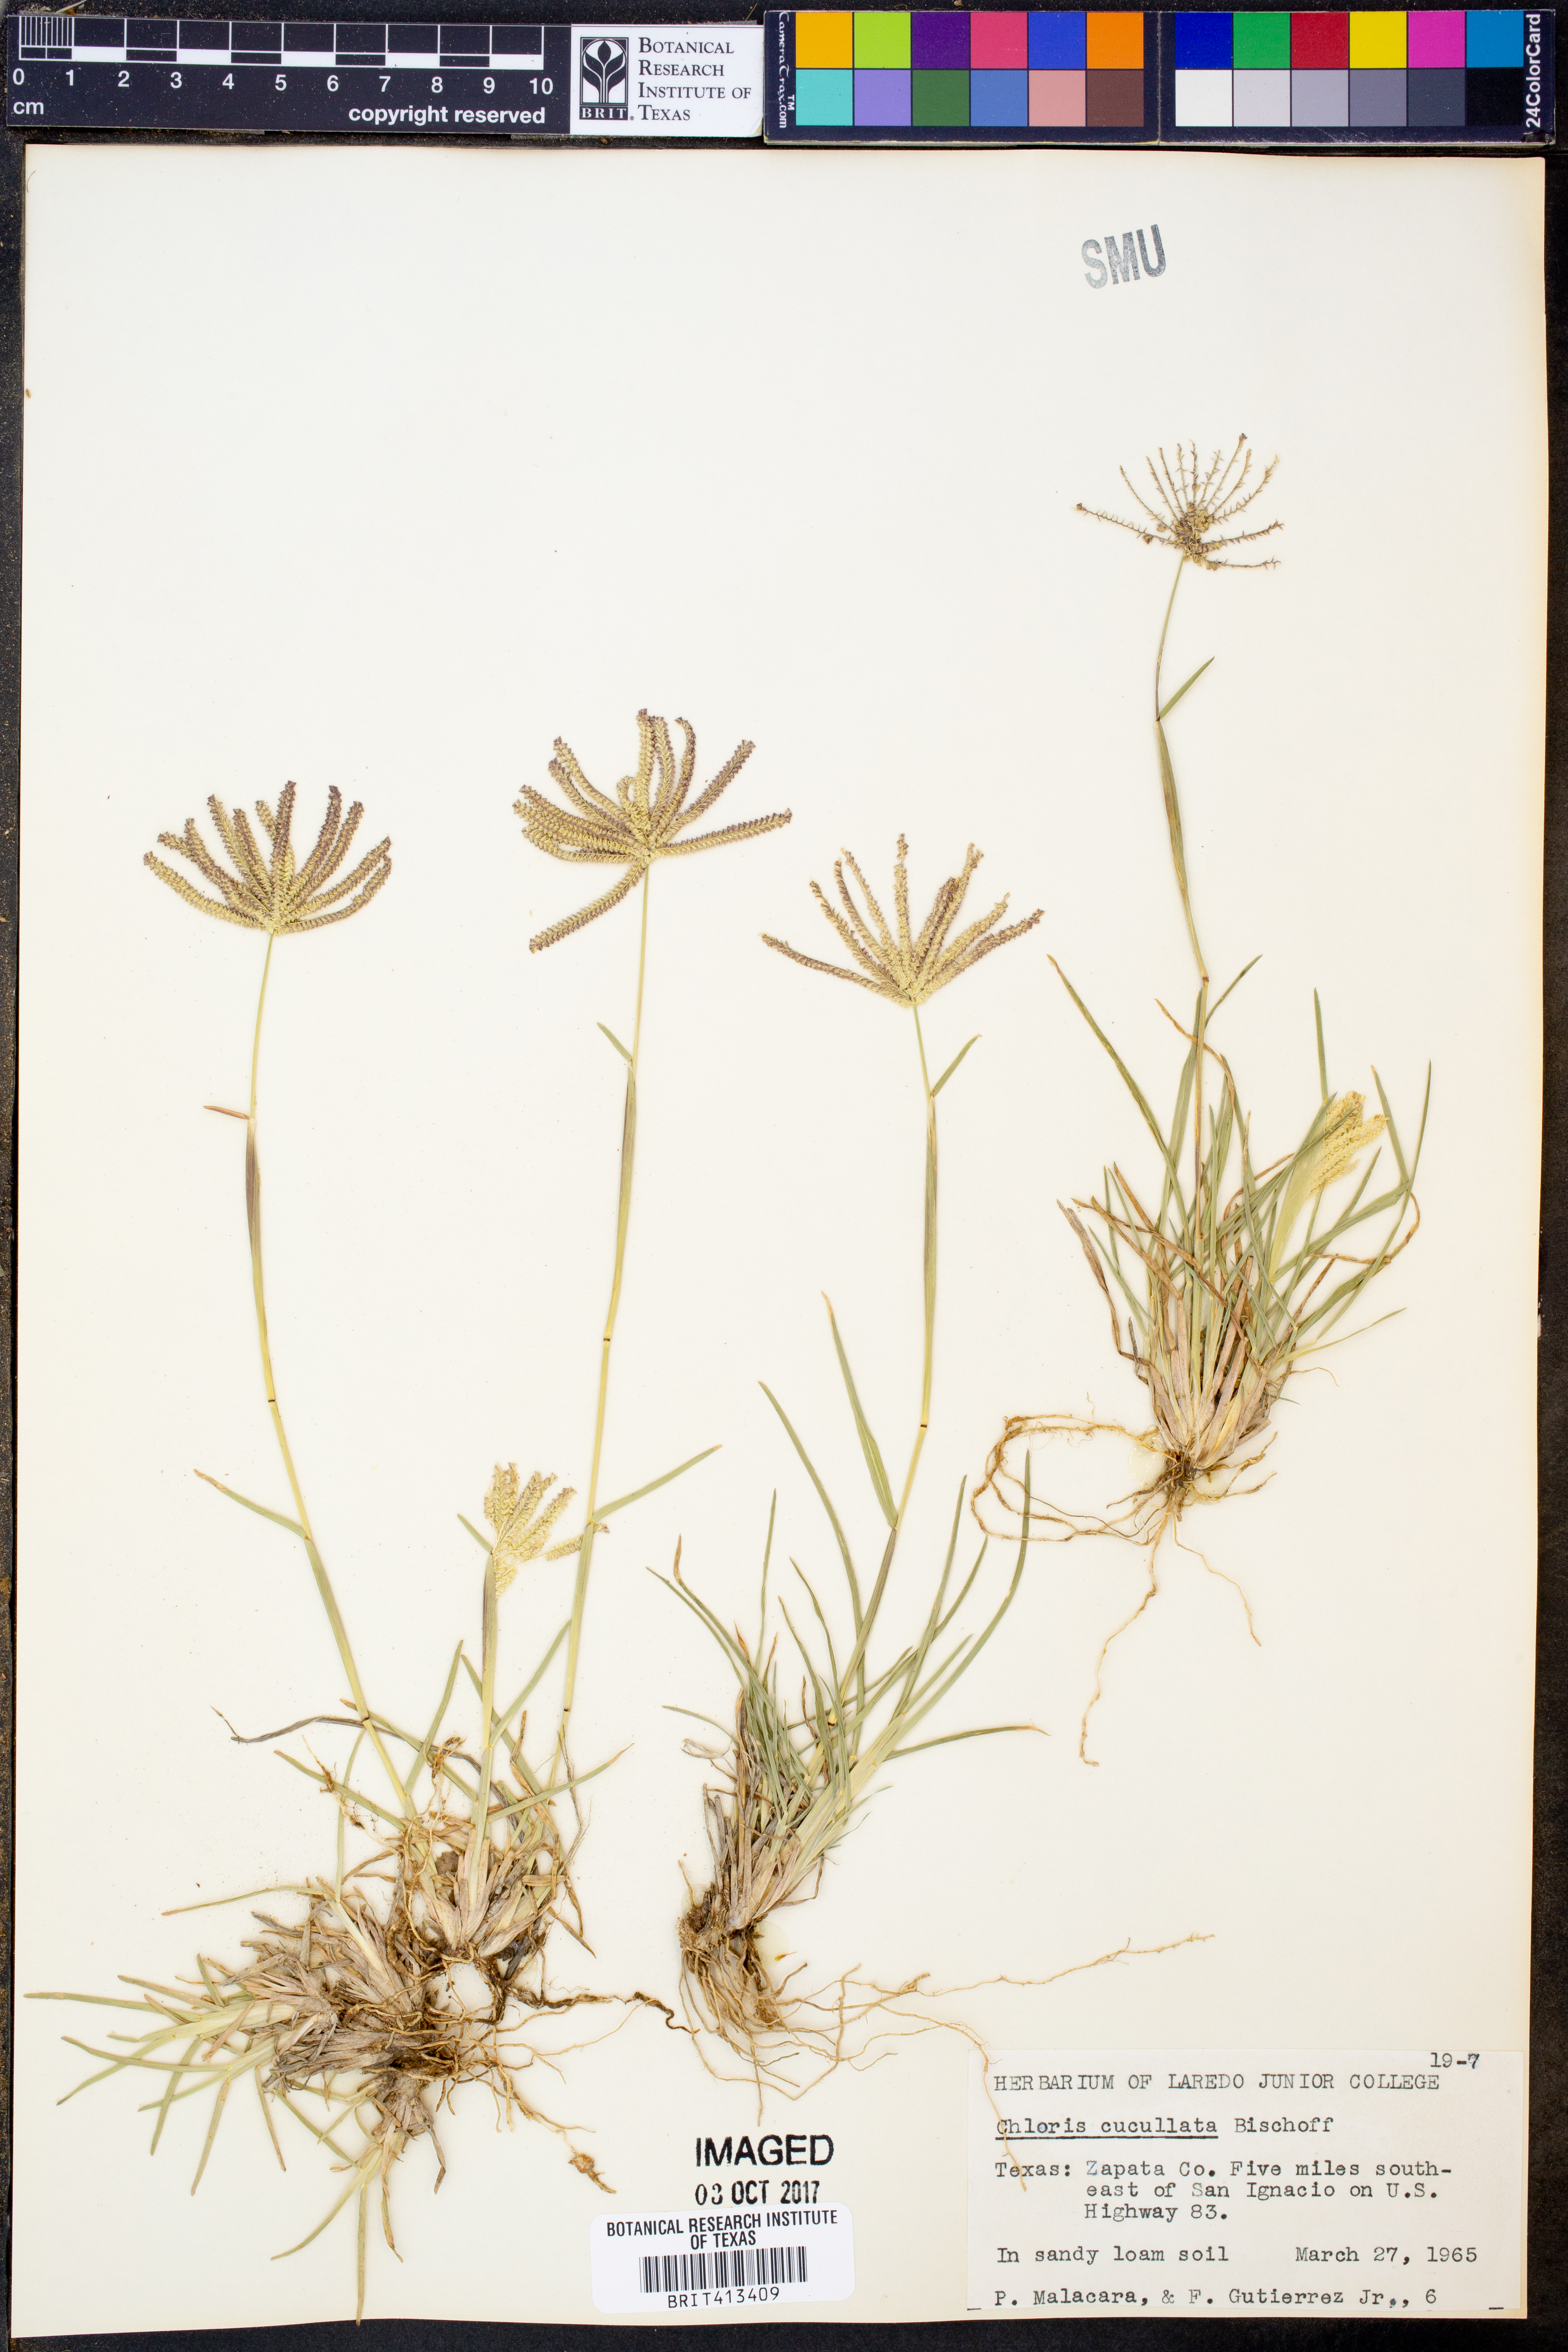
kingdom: Plantae
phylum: Tracheophyta
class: Liliopsida
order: Poales
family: Poaceae
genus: Chloris
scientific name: Chloris cucullata
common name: Hooded windmill grass
